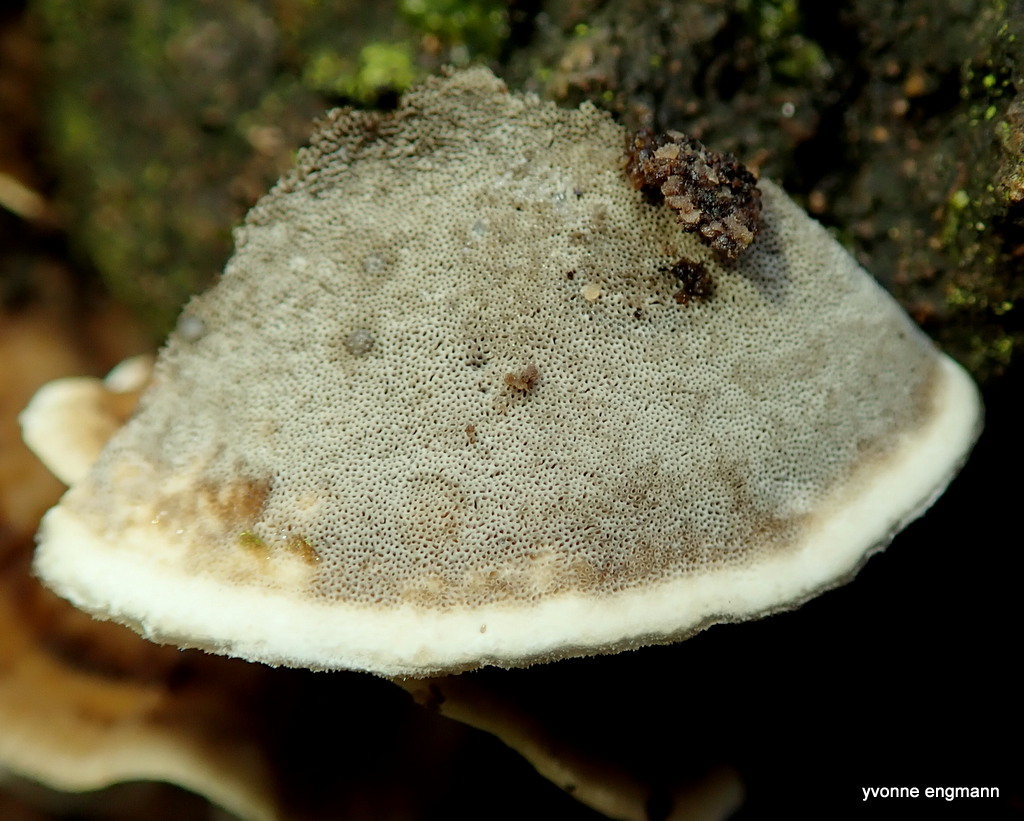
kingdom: Fungi
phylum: Basidiomycota
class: Agaricomycetes
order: Polyporales
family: Phanerochaetaceae
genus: Bjerkandera
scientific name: Bjerkandera adusta
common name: sveden sodporesvamp
